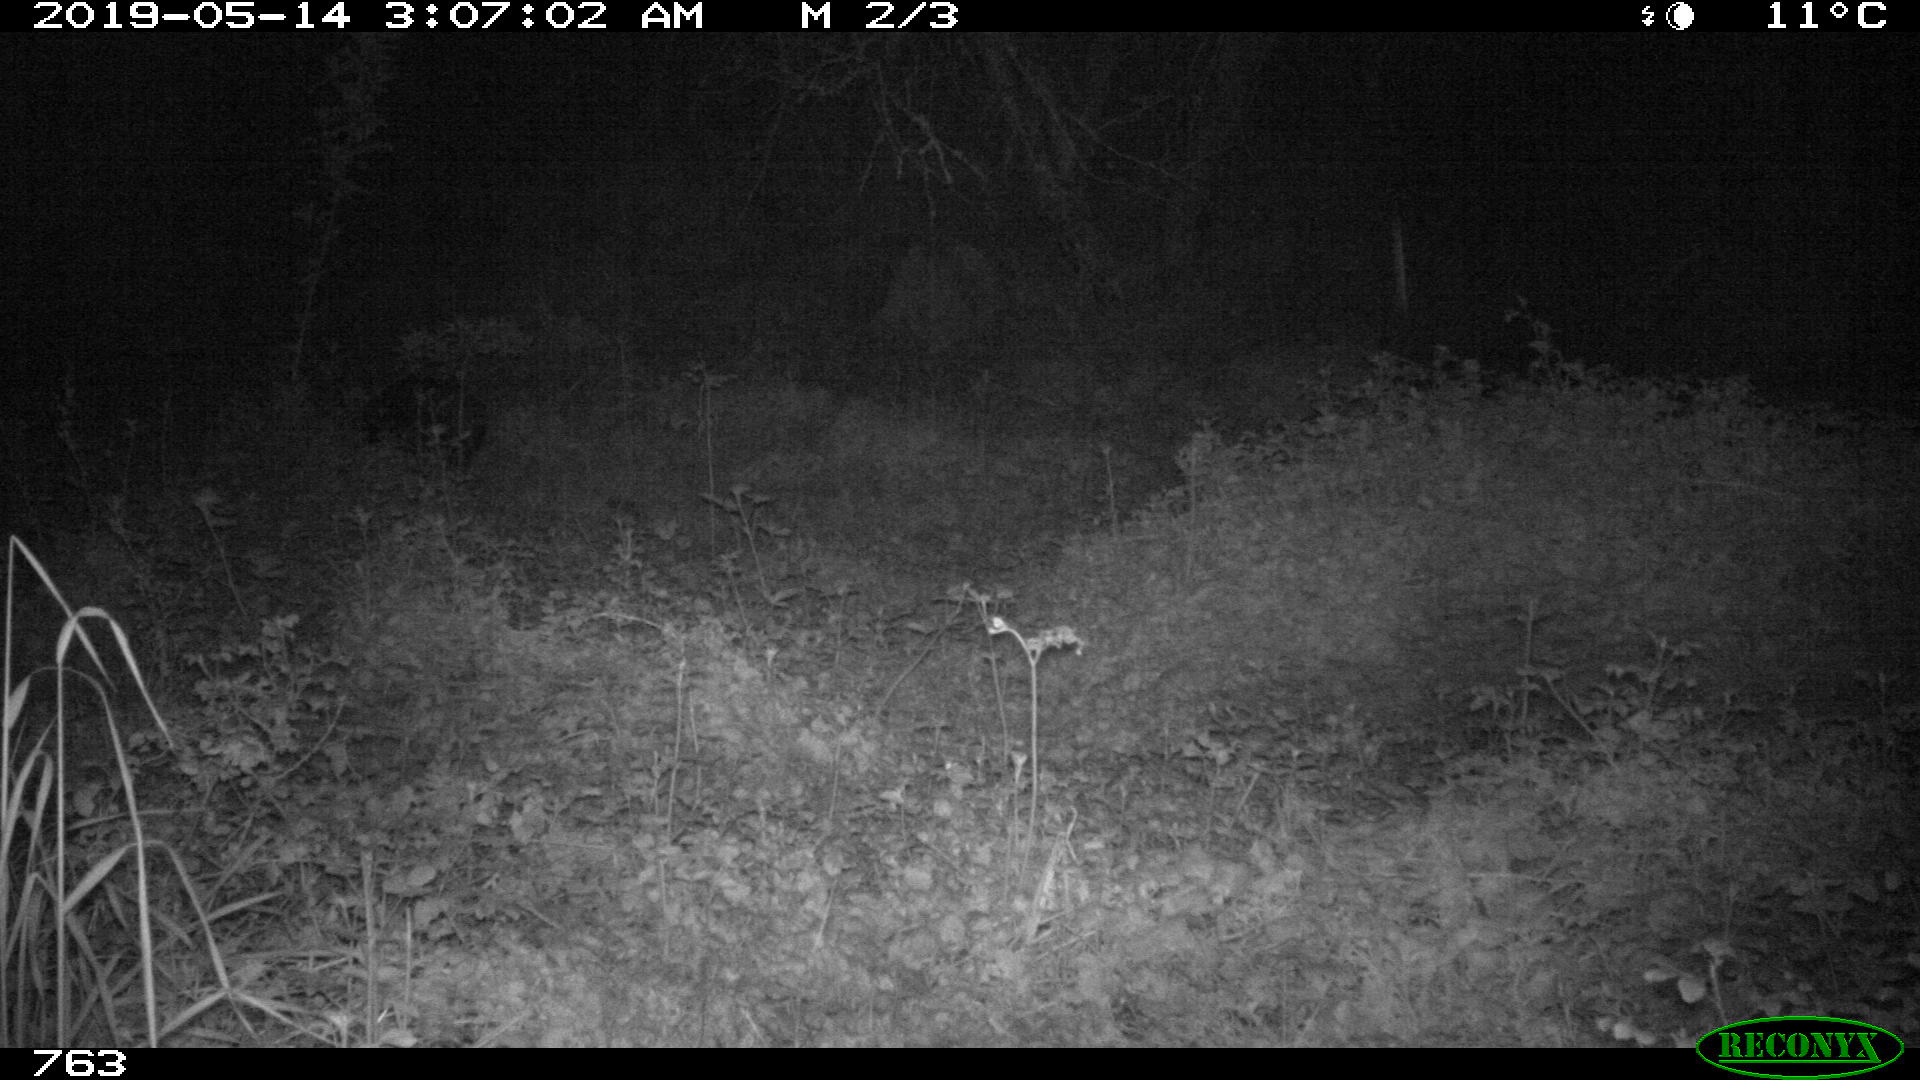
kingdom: Animalia
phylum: Chordata
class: Mammalia
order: Artiodactyla
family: Suidae
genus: Sus
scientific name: Sus scrofa
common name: Wild boar
